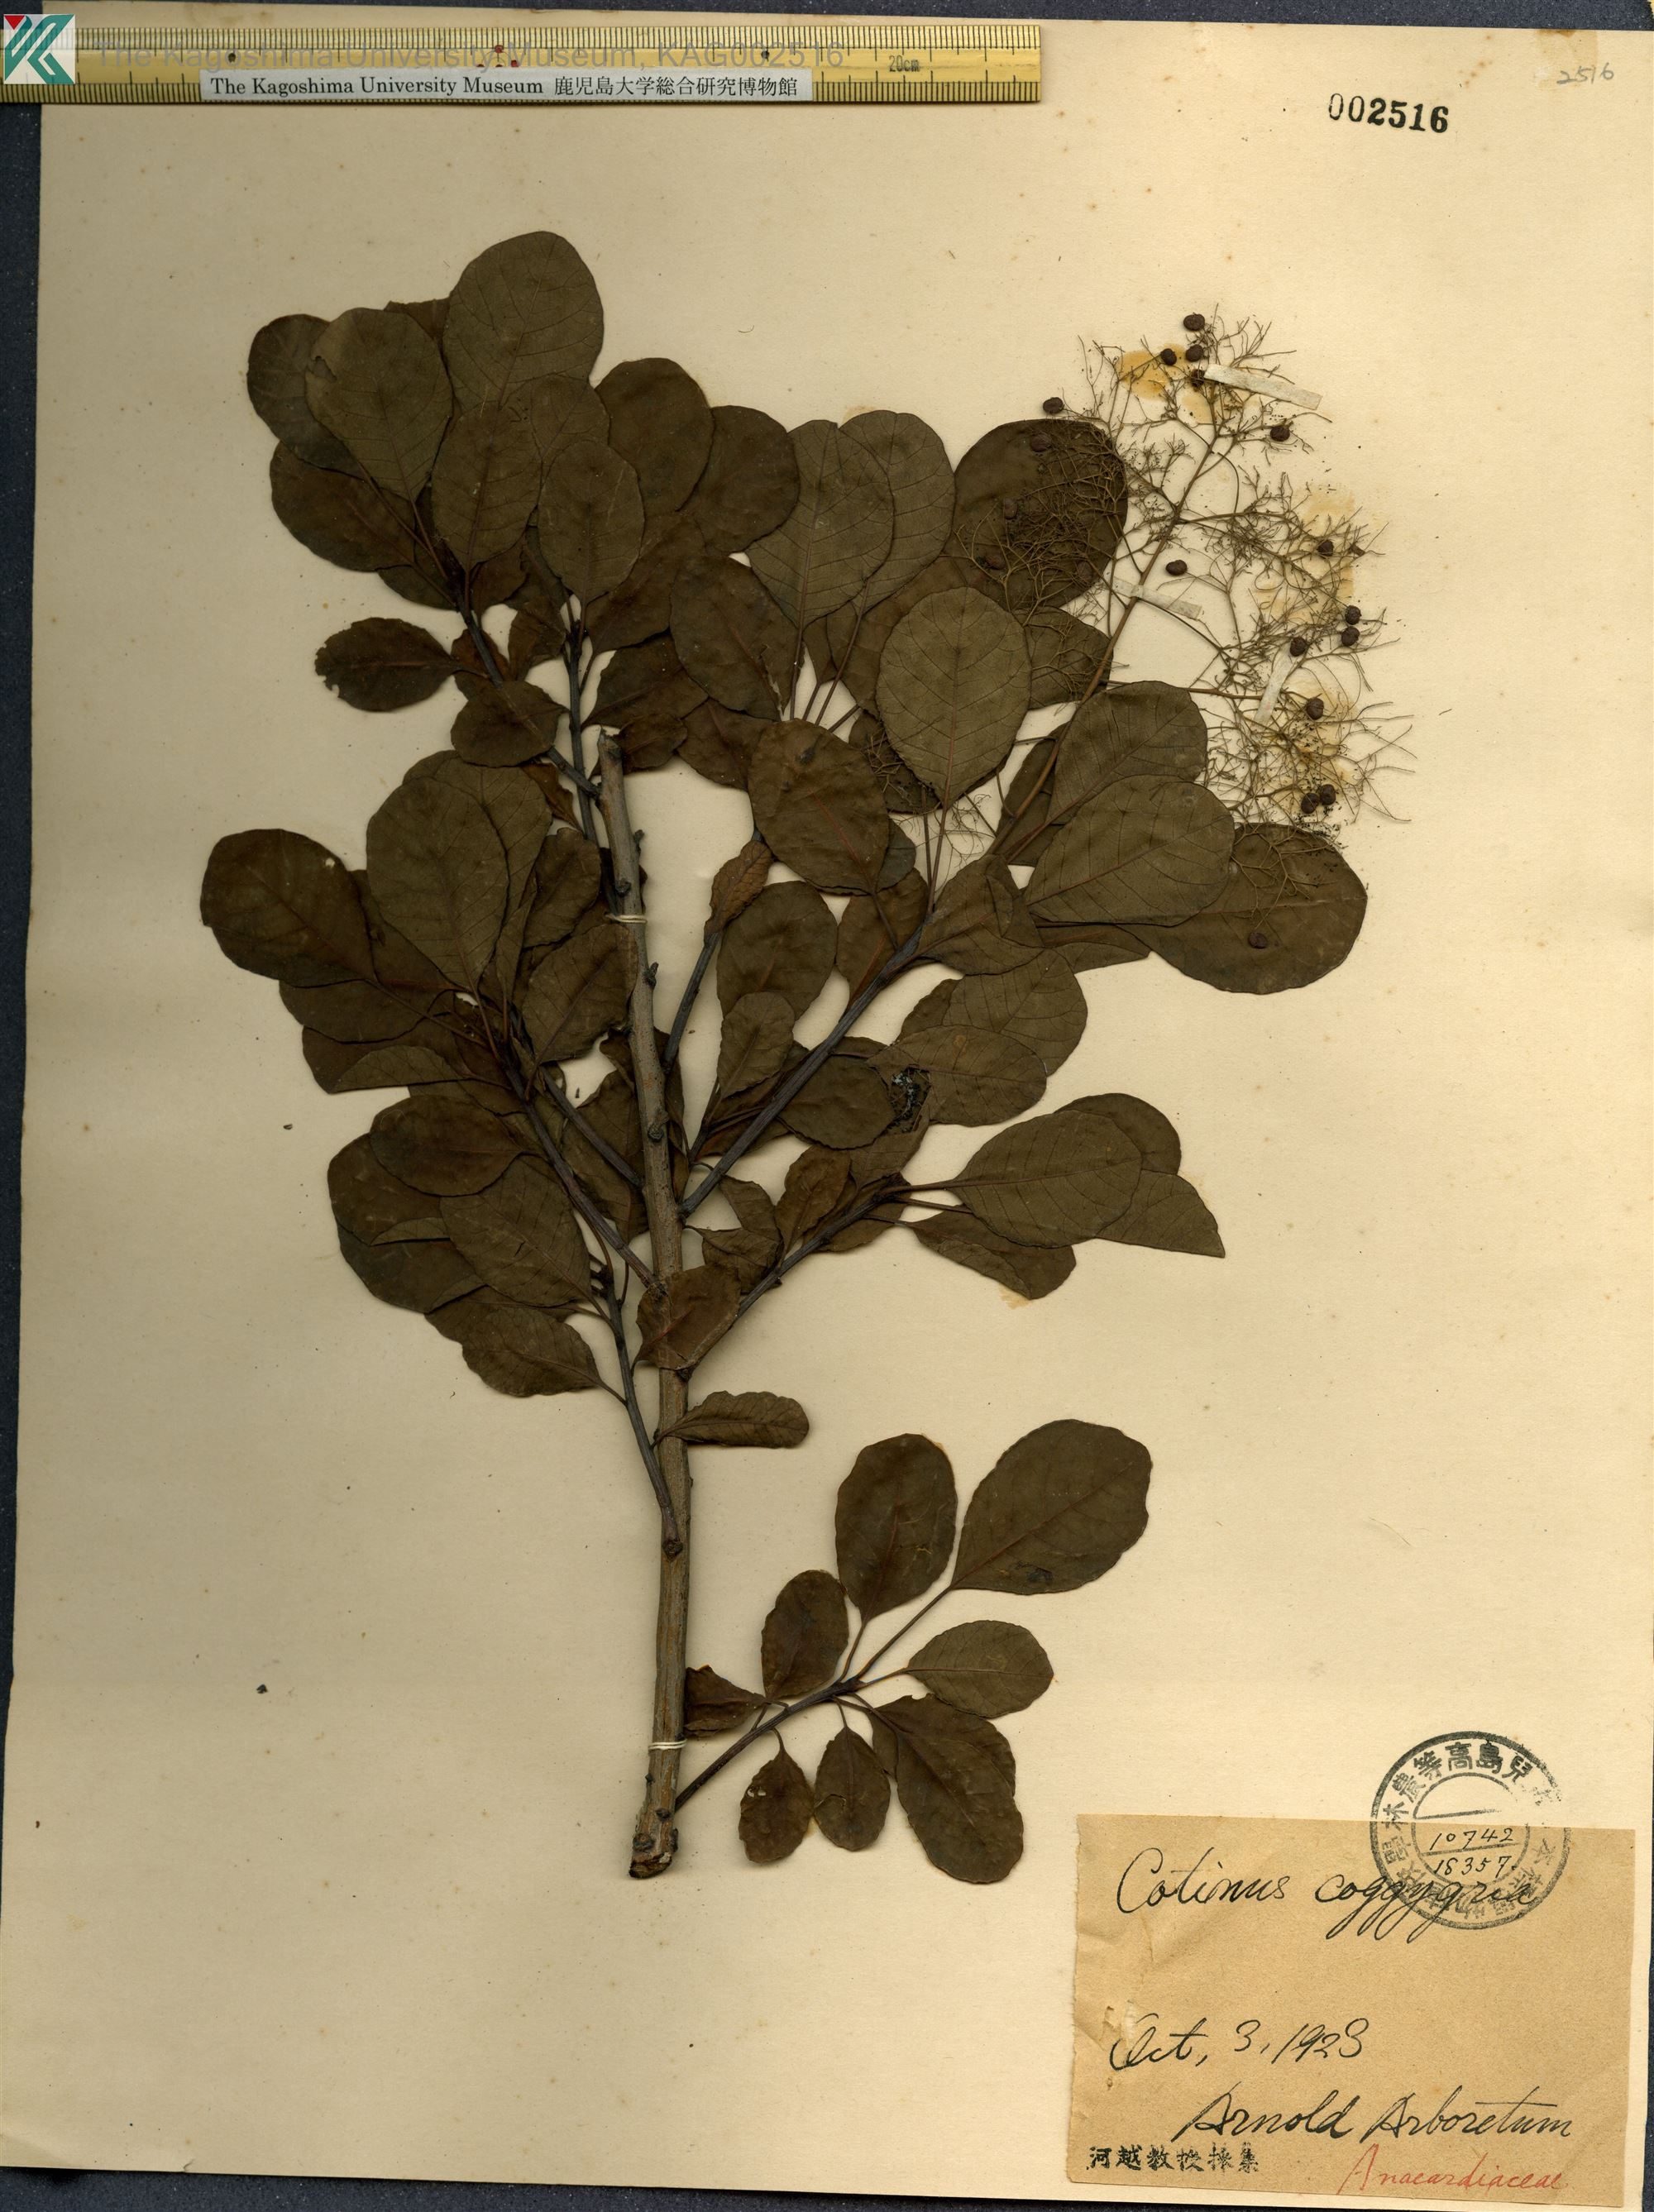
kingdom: Plantae
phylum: Tracheophyta
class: Magnoliopsida
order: Sapindales
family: Anacardiaceae
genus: Cotinus
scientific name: Cotinus coggygria
